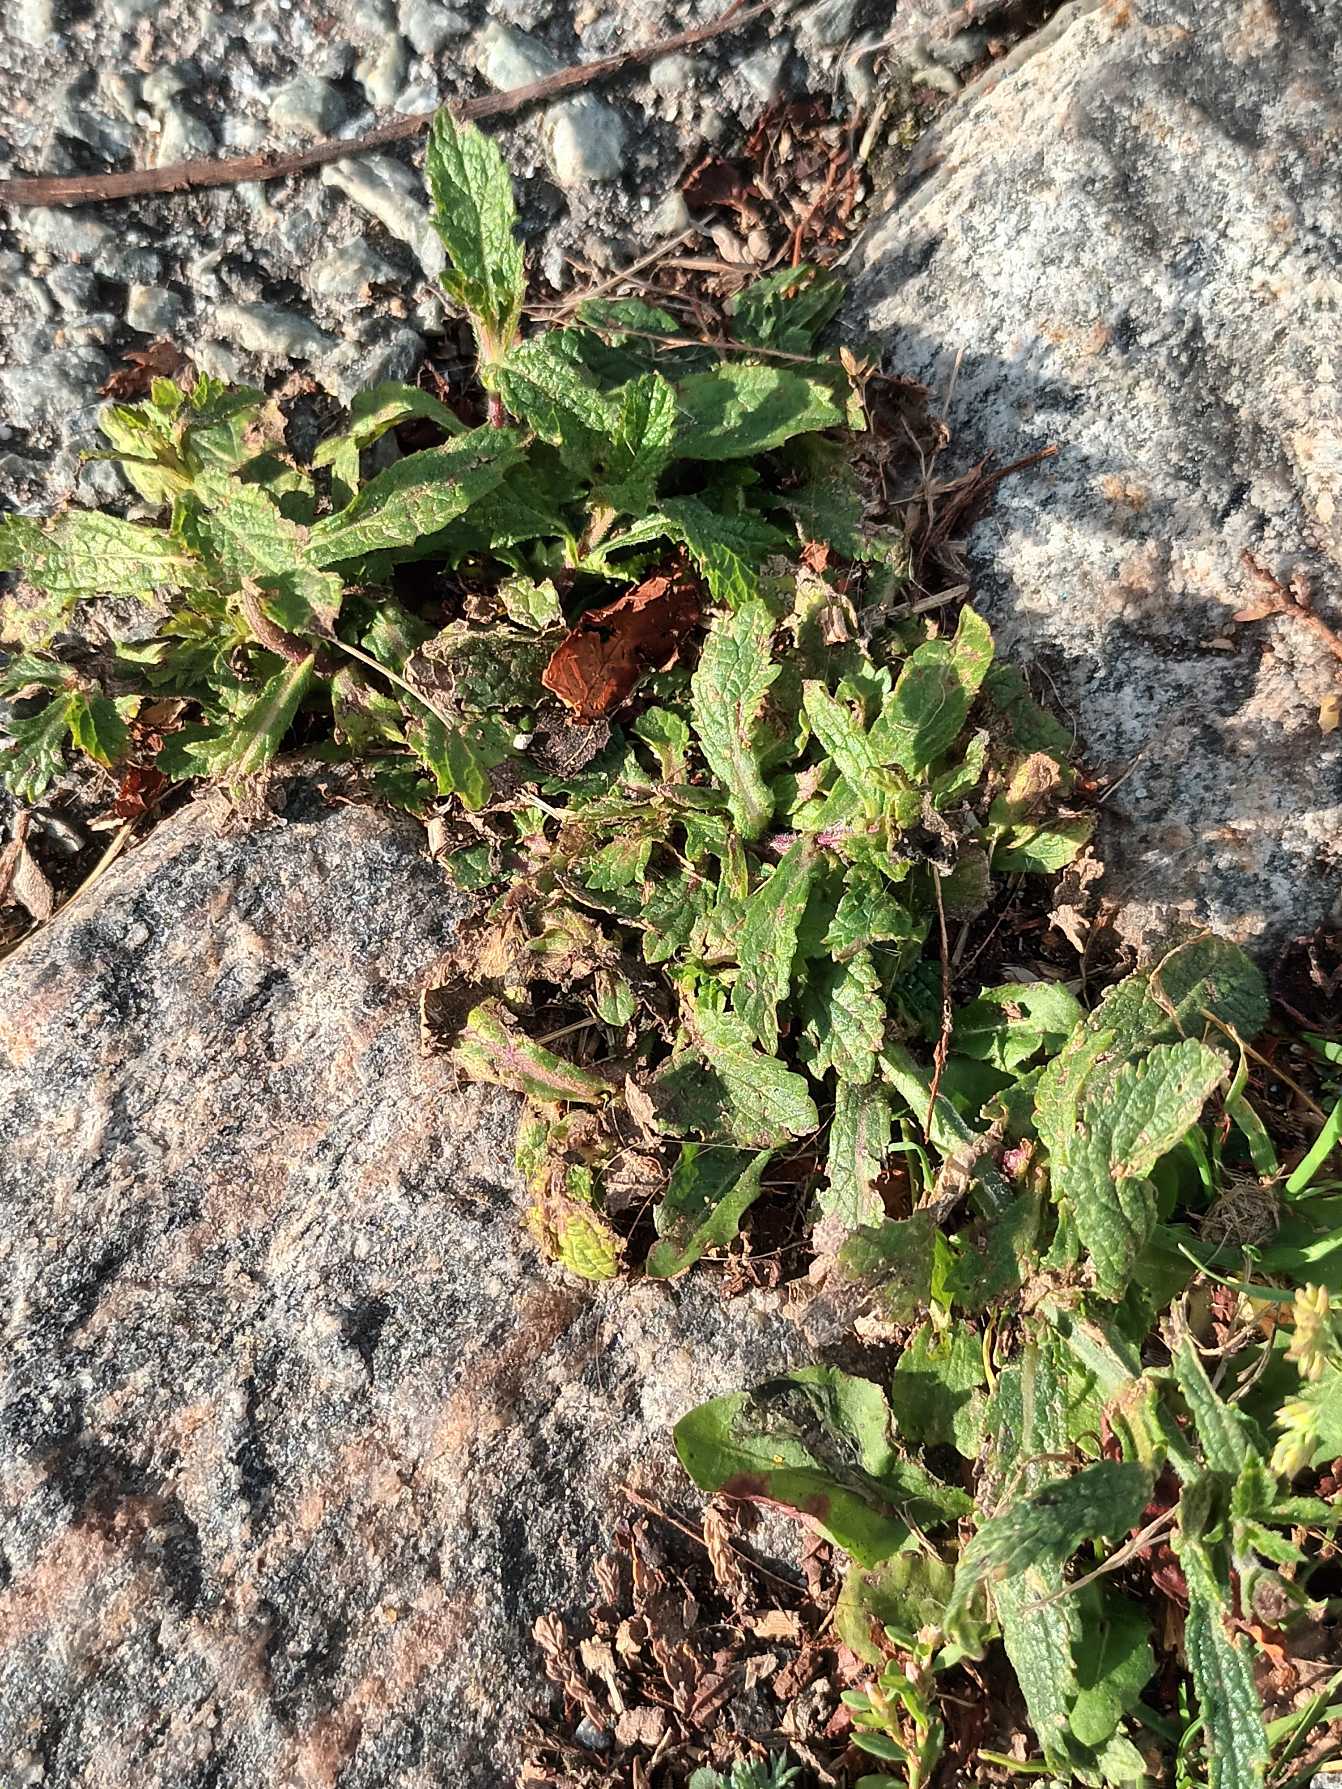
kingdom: Plantae
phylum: Tracheophyta
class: Magnoliopsida
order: Lamiales
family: Verbenaceae
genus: Verbena
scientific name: Verbena bonariensis
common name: Kæmpe-jernurt
